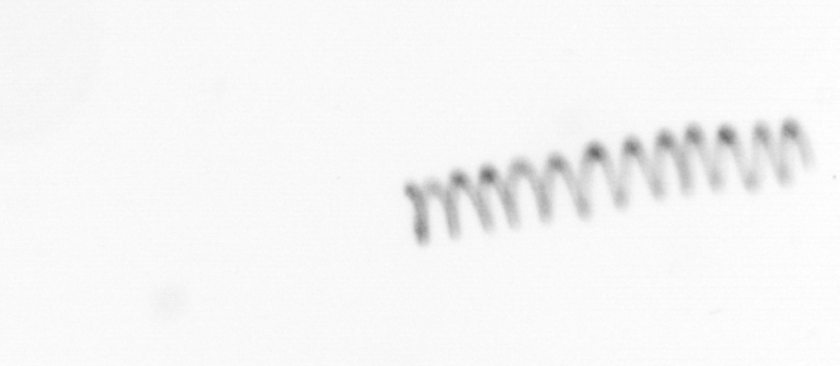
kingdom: Chromista
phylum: Ochrophyta
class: Bacillariophyceae
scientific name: Bacillariophyceae
